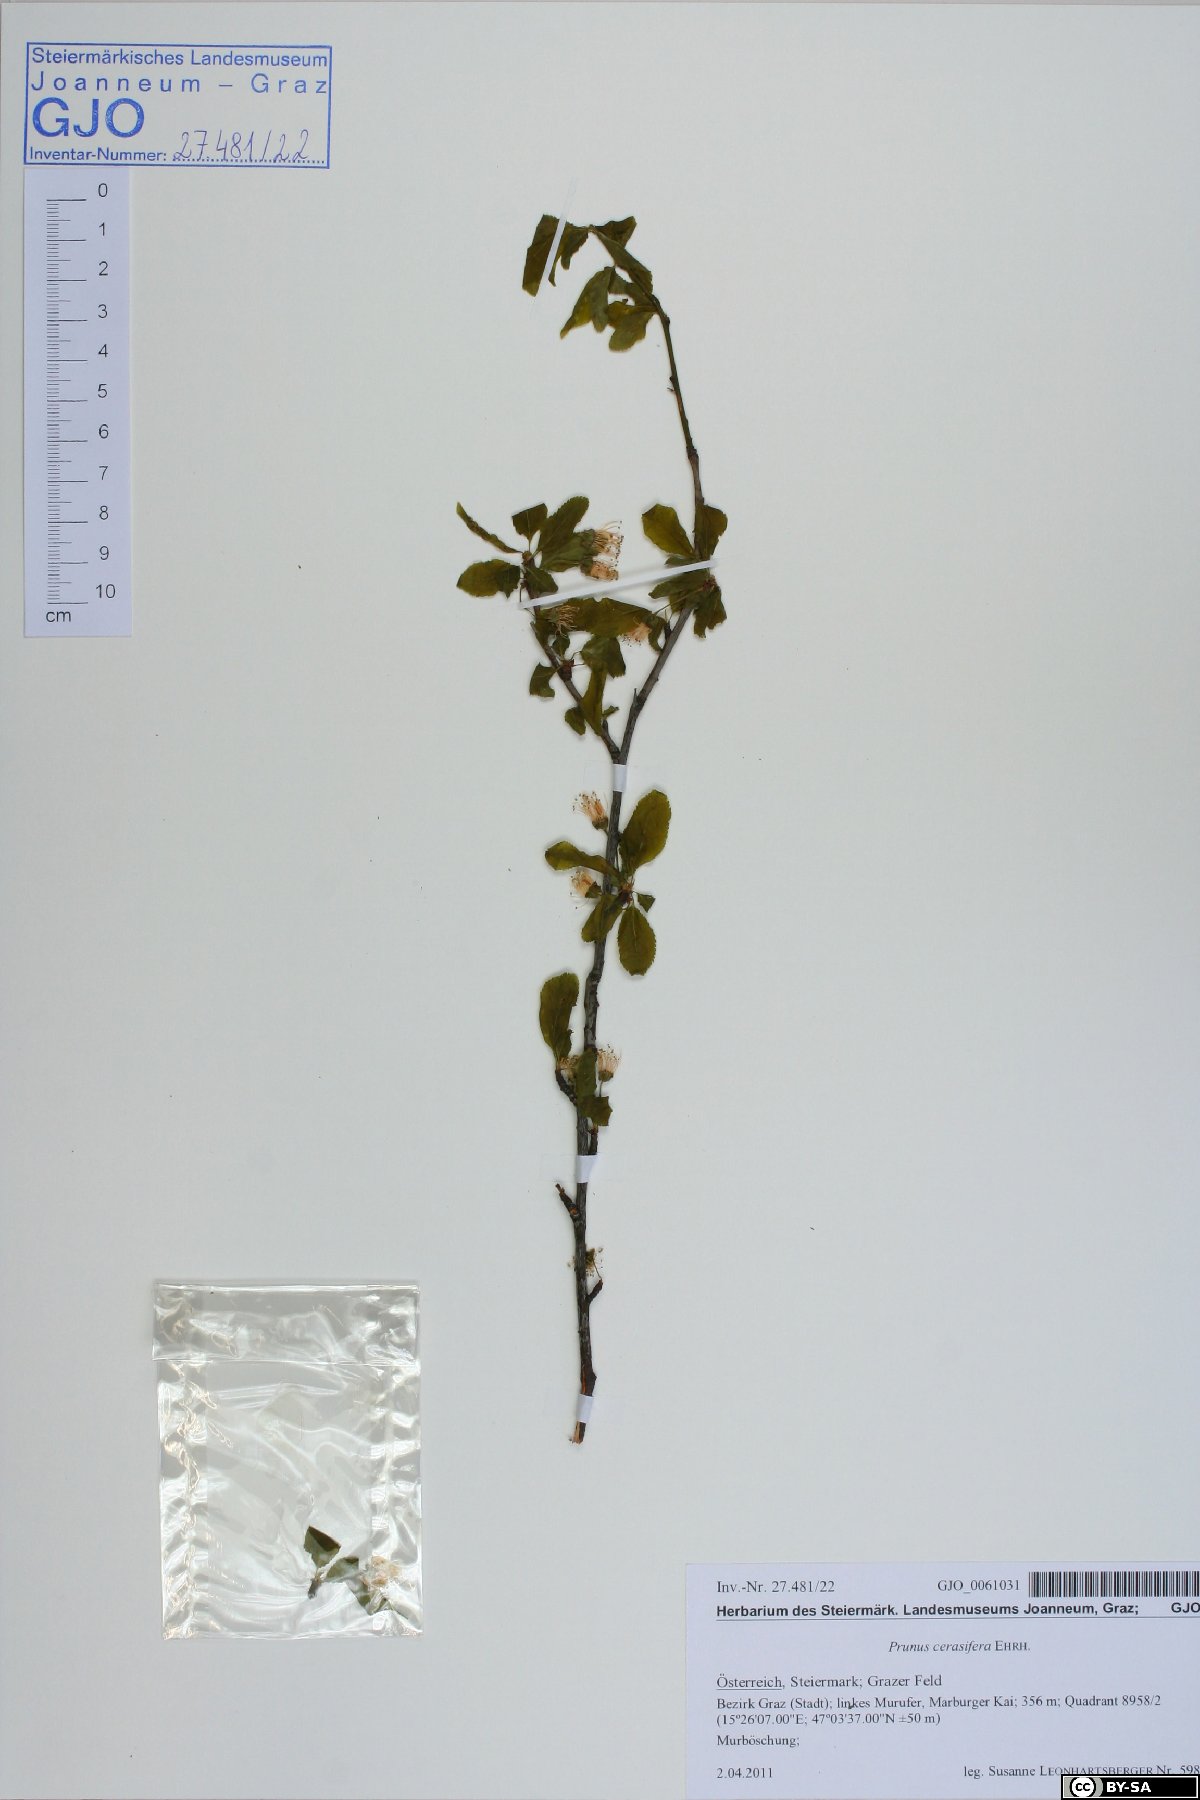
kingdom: Plantae
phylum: Tracheophyta
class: Magnoliopsida
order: Rosales
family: Rosaceae
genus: Prunus
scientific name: Prunus cerasifera
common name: Cherry plum
